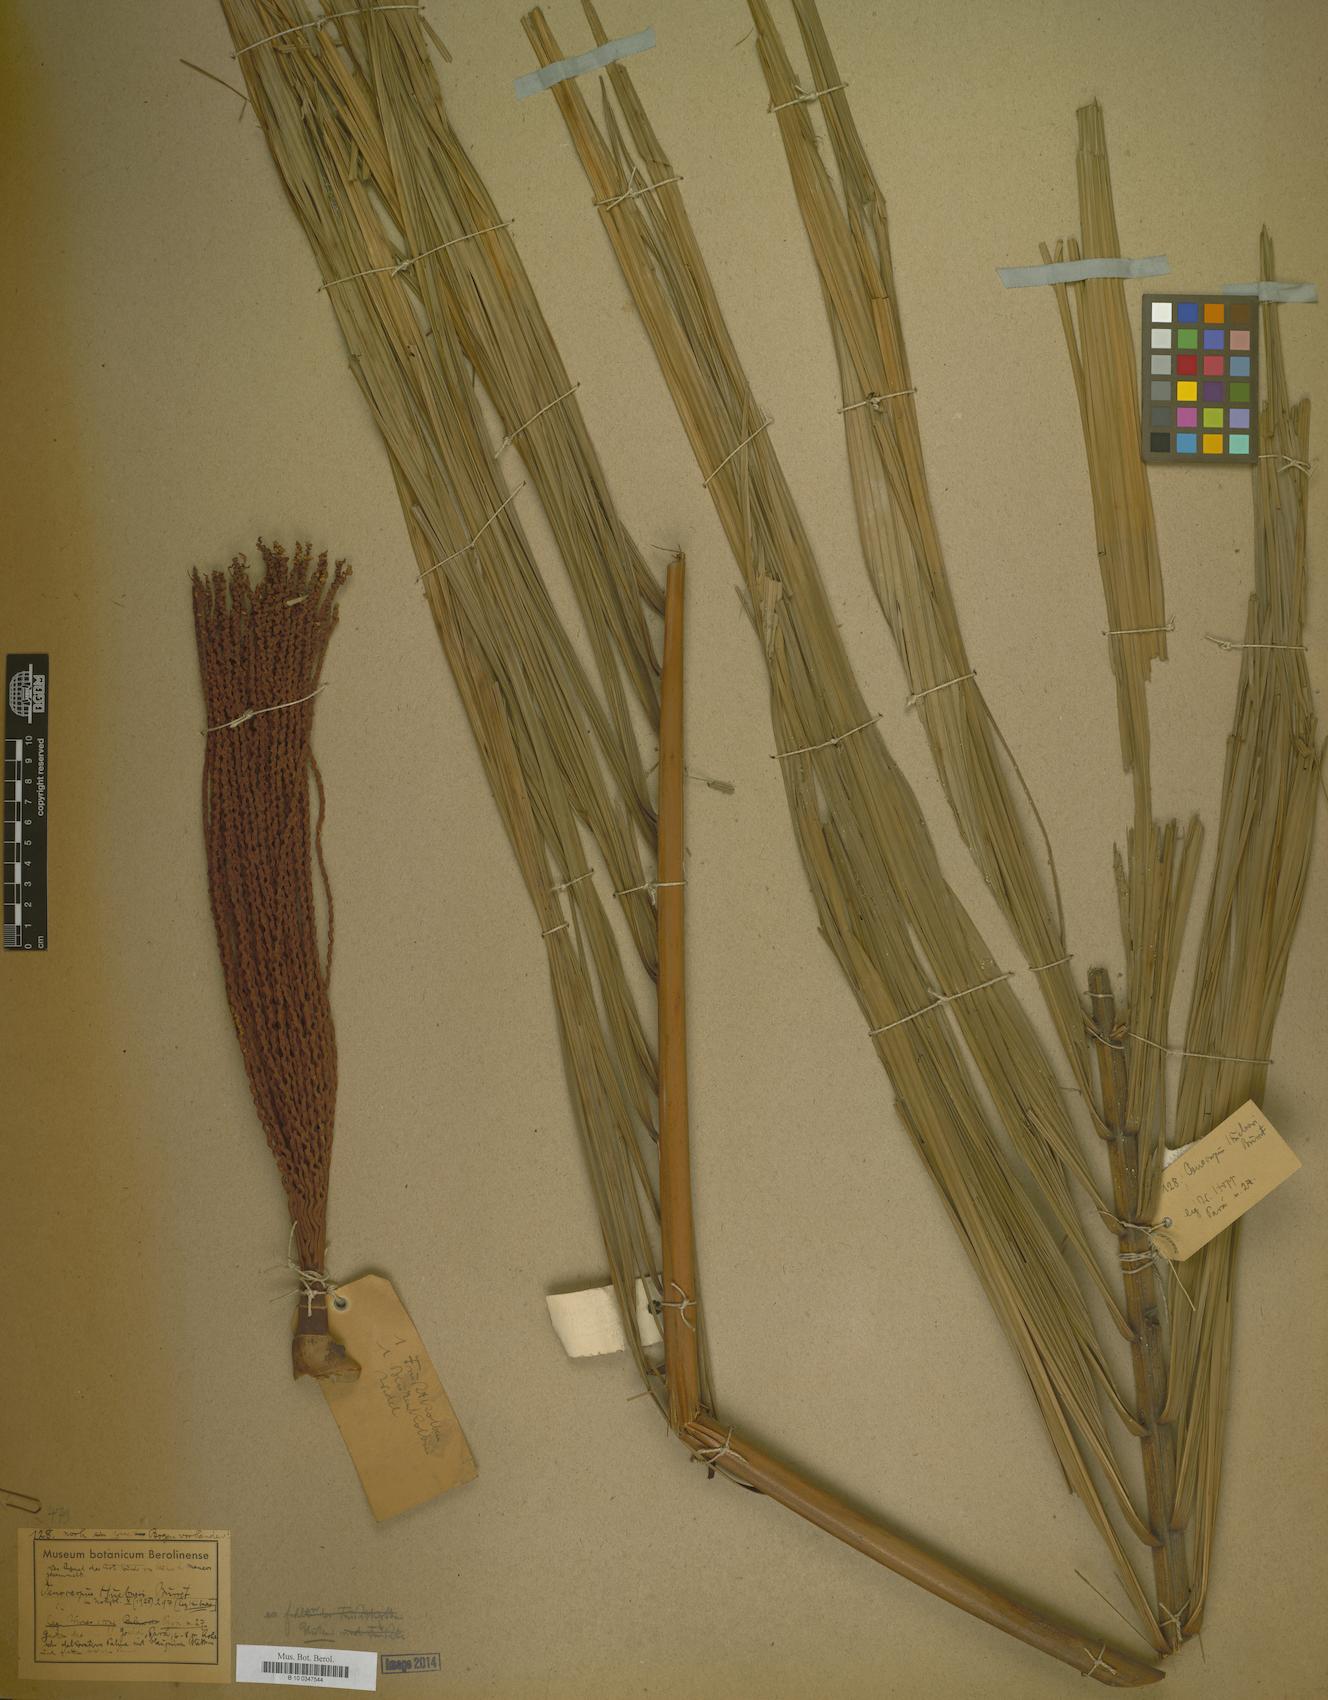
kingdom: Plantae
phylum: Tracheophyta
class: Liliopsida
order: Arecales
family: Arecaceae
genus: Oenocarpus
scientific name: Oenocarpus minor
